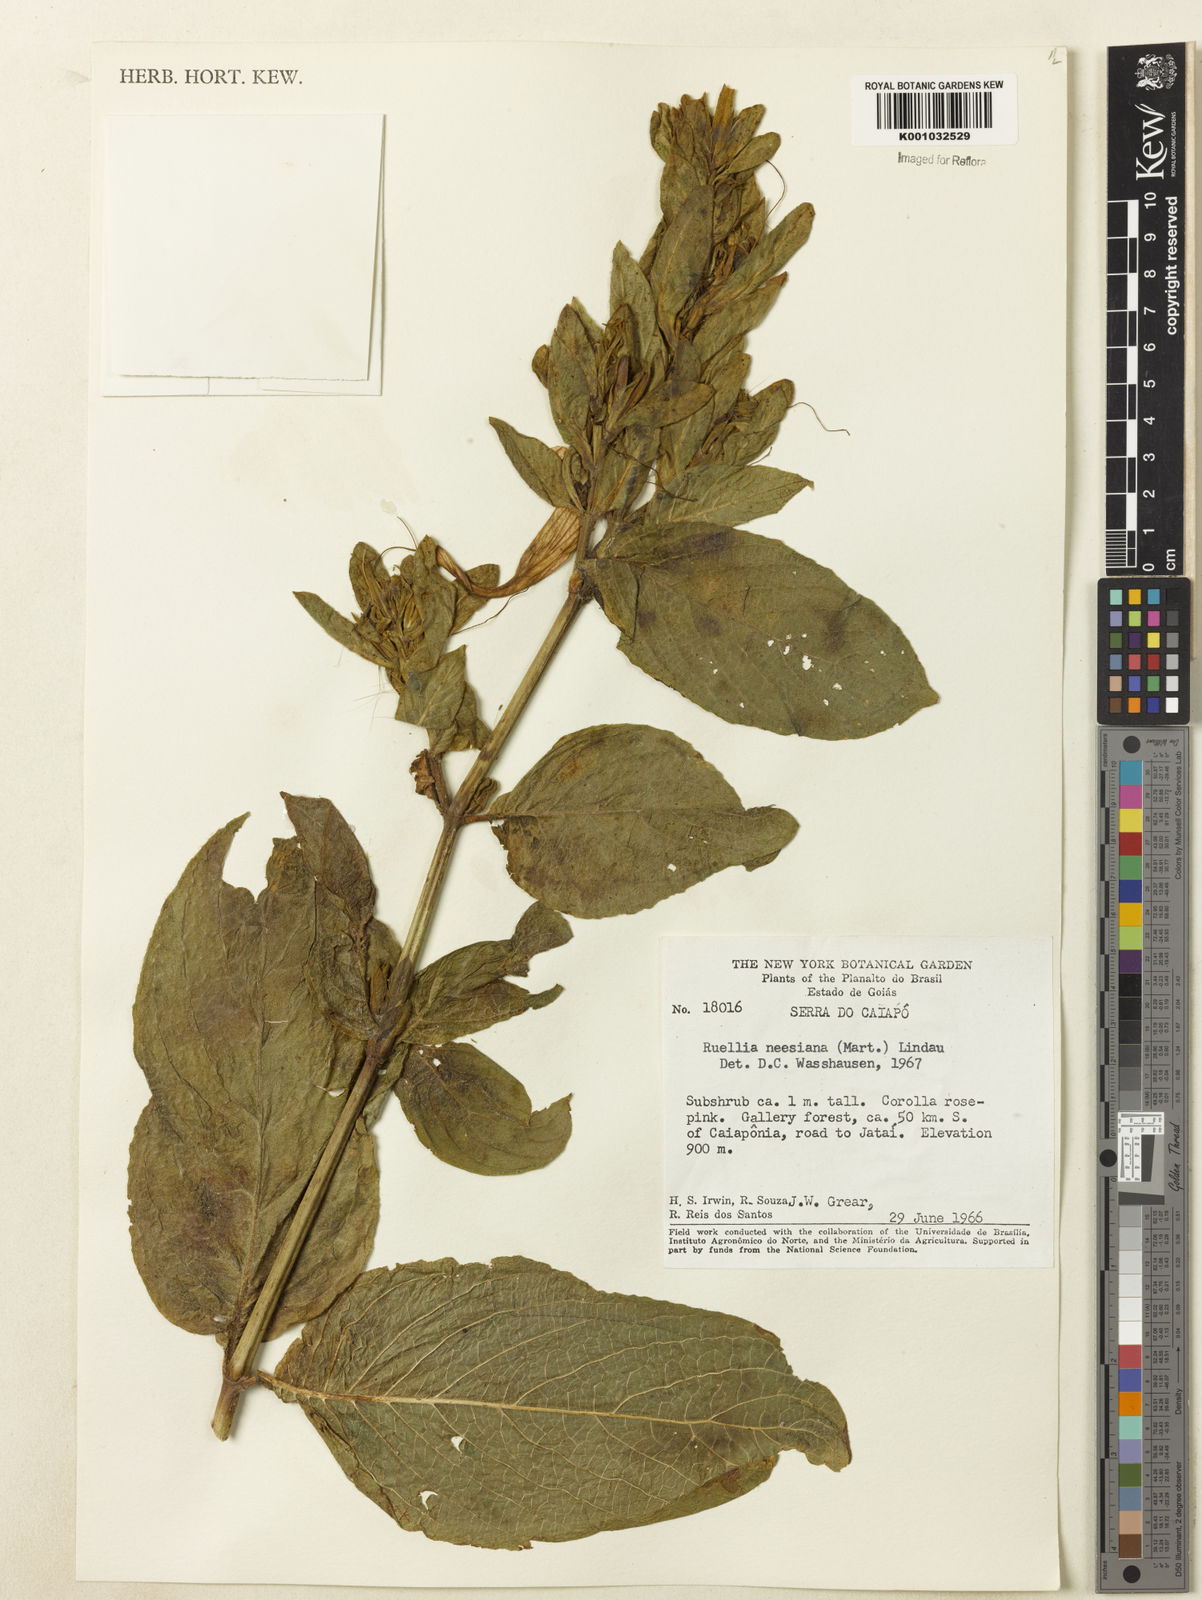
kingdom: Plantae
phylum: Tracheophyta
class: Magnoliopsida
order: Lamiales
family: Acanthaceae
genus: Ruellia
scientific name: Ruellia
